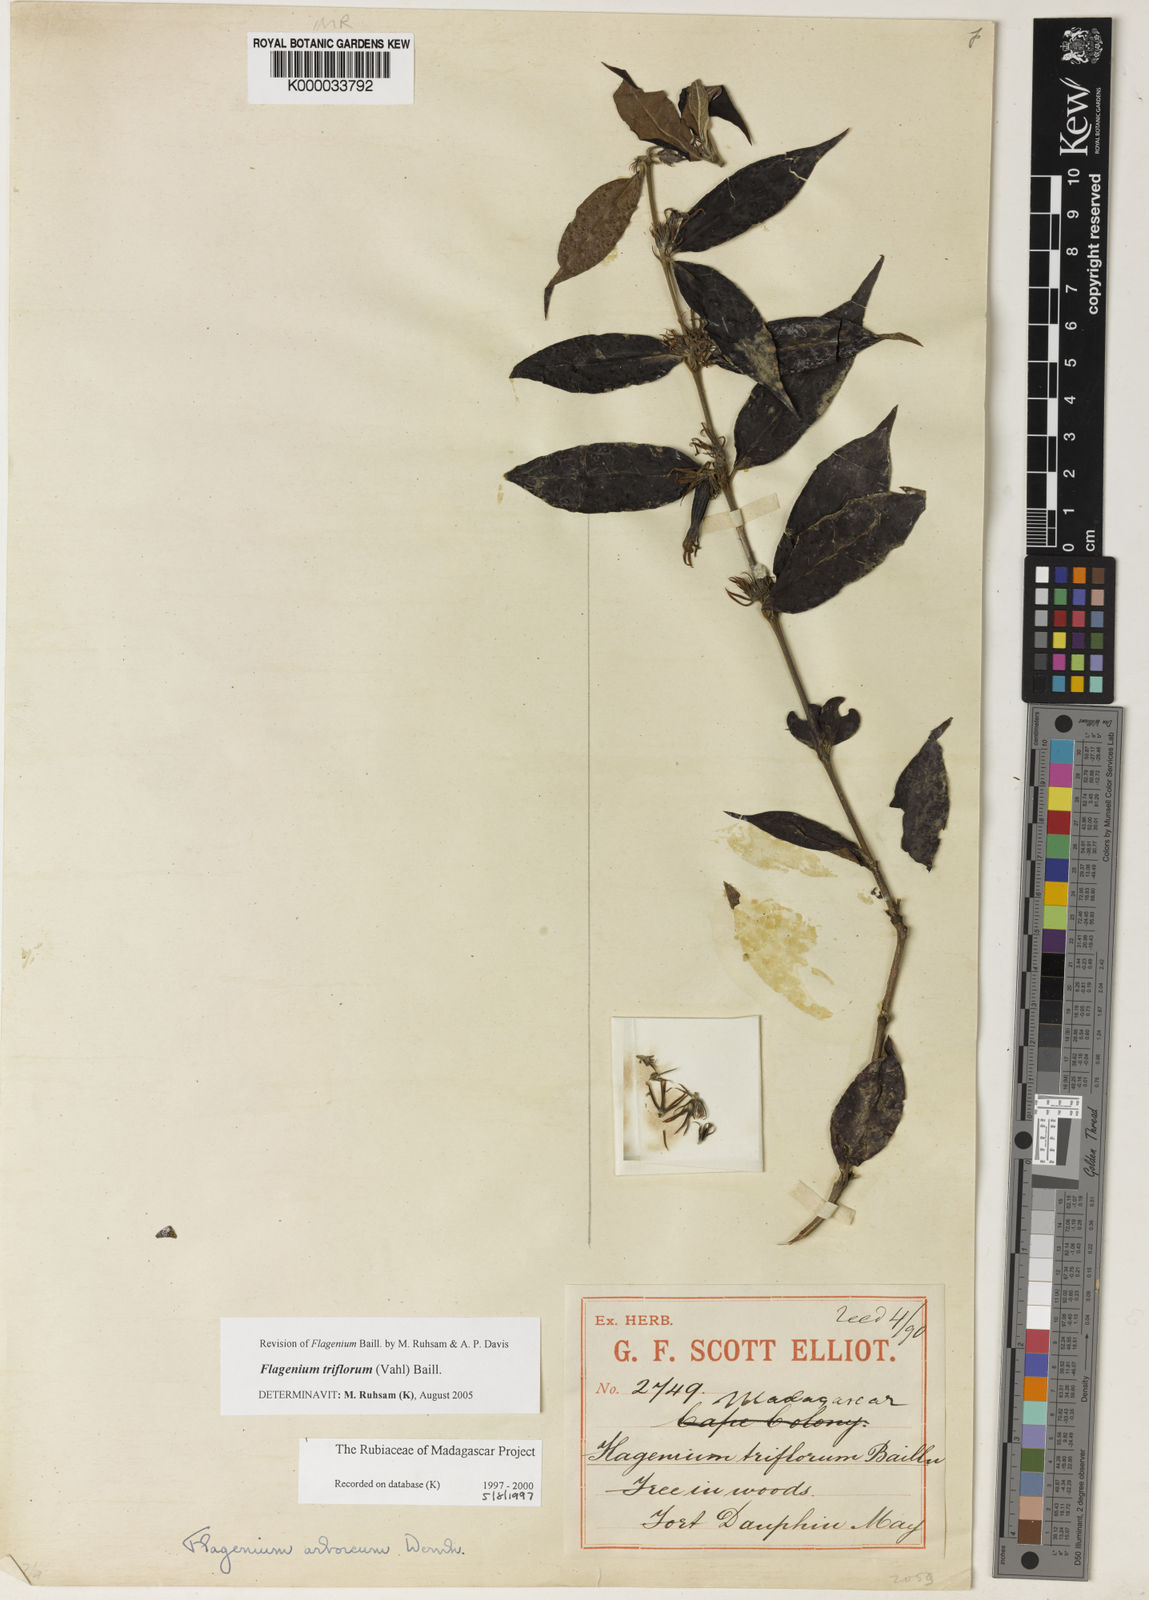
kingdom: Plantae
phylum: Tracheophyta
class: Magnoliopsida
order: Gentianales
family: Rubiaceae
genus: Flagenium
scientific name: Flagenium triflorum
